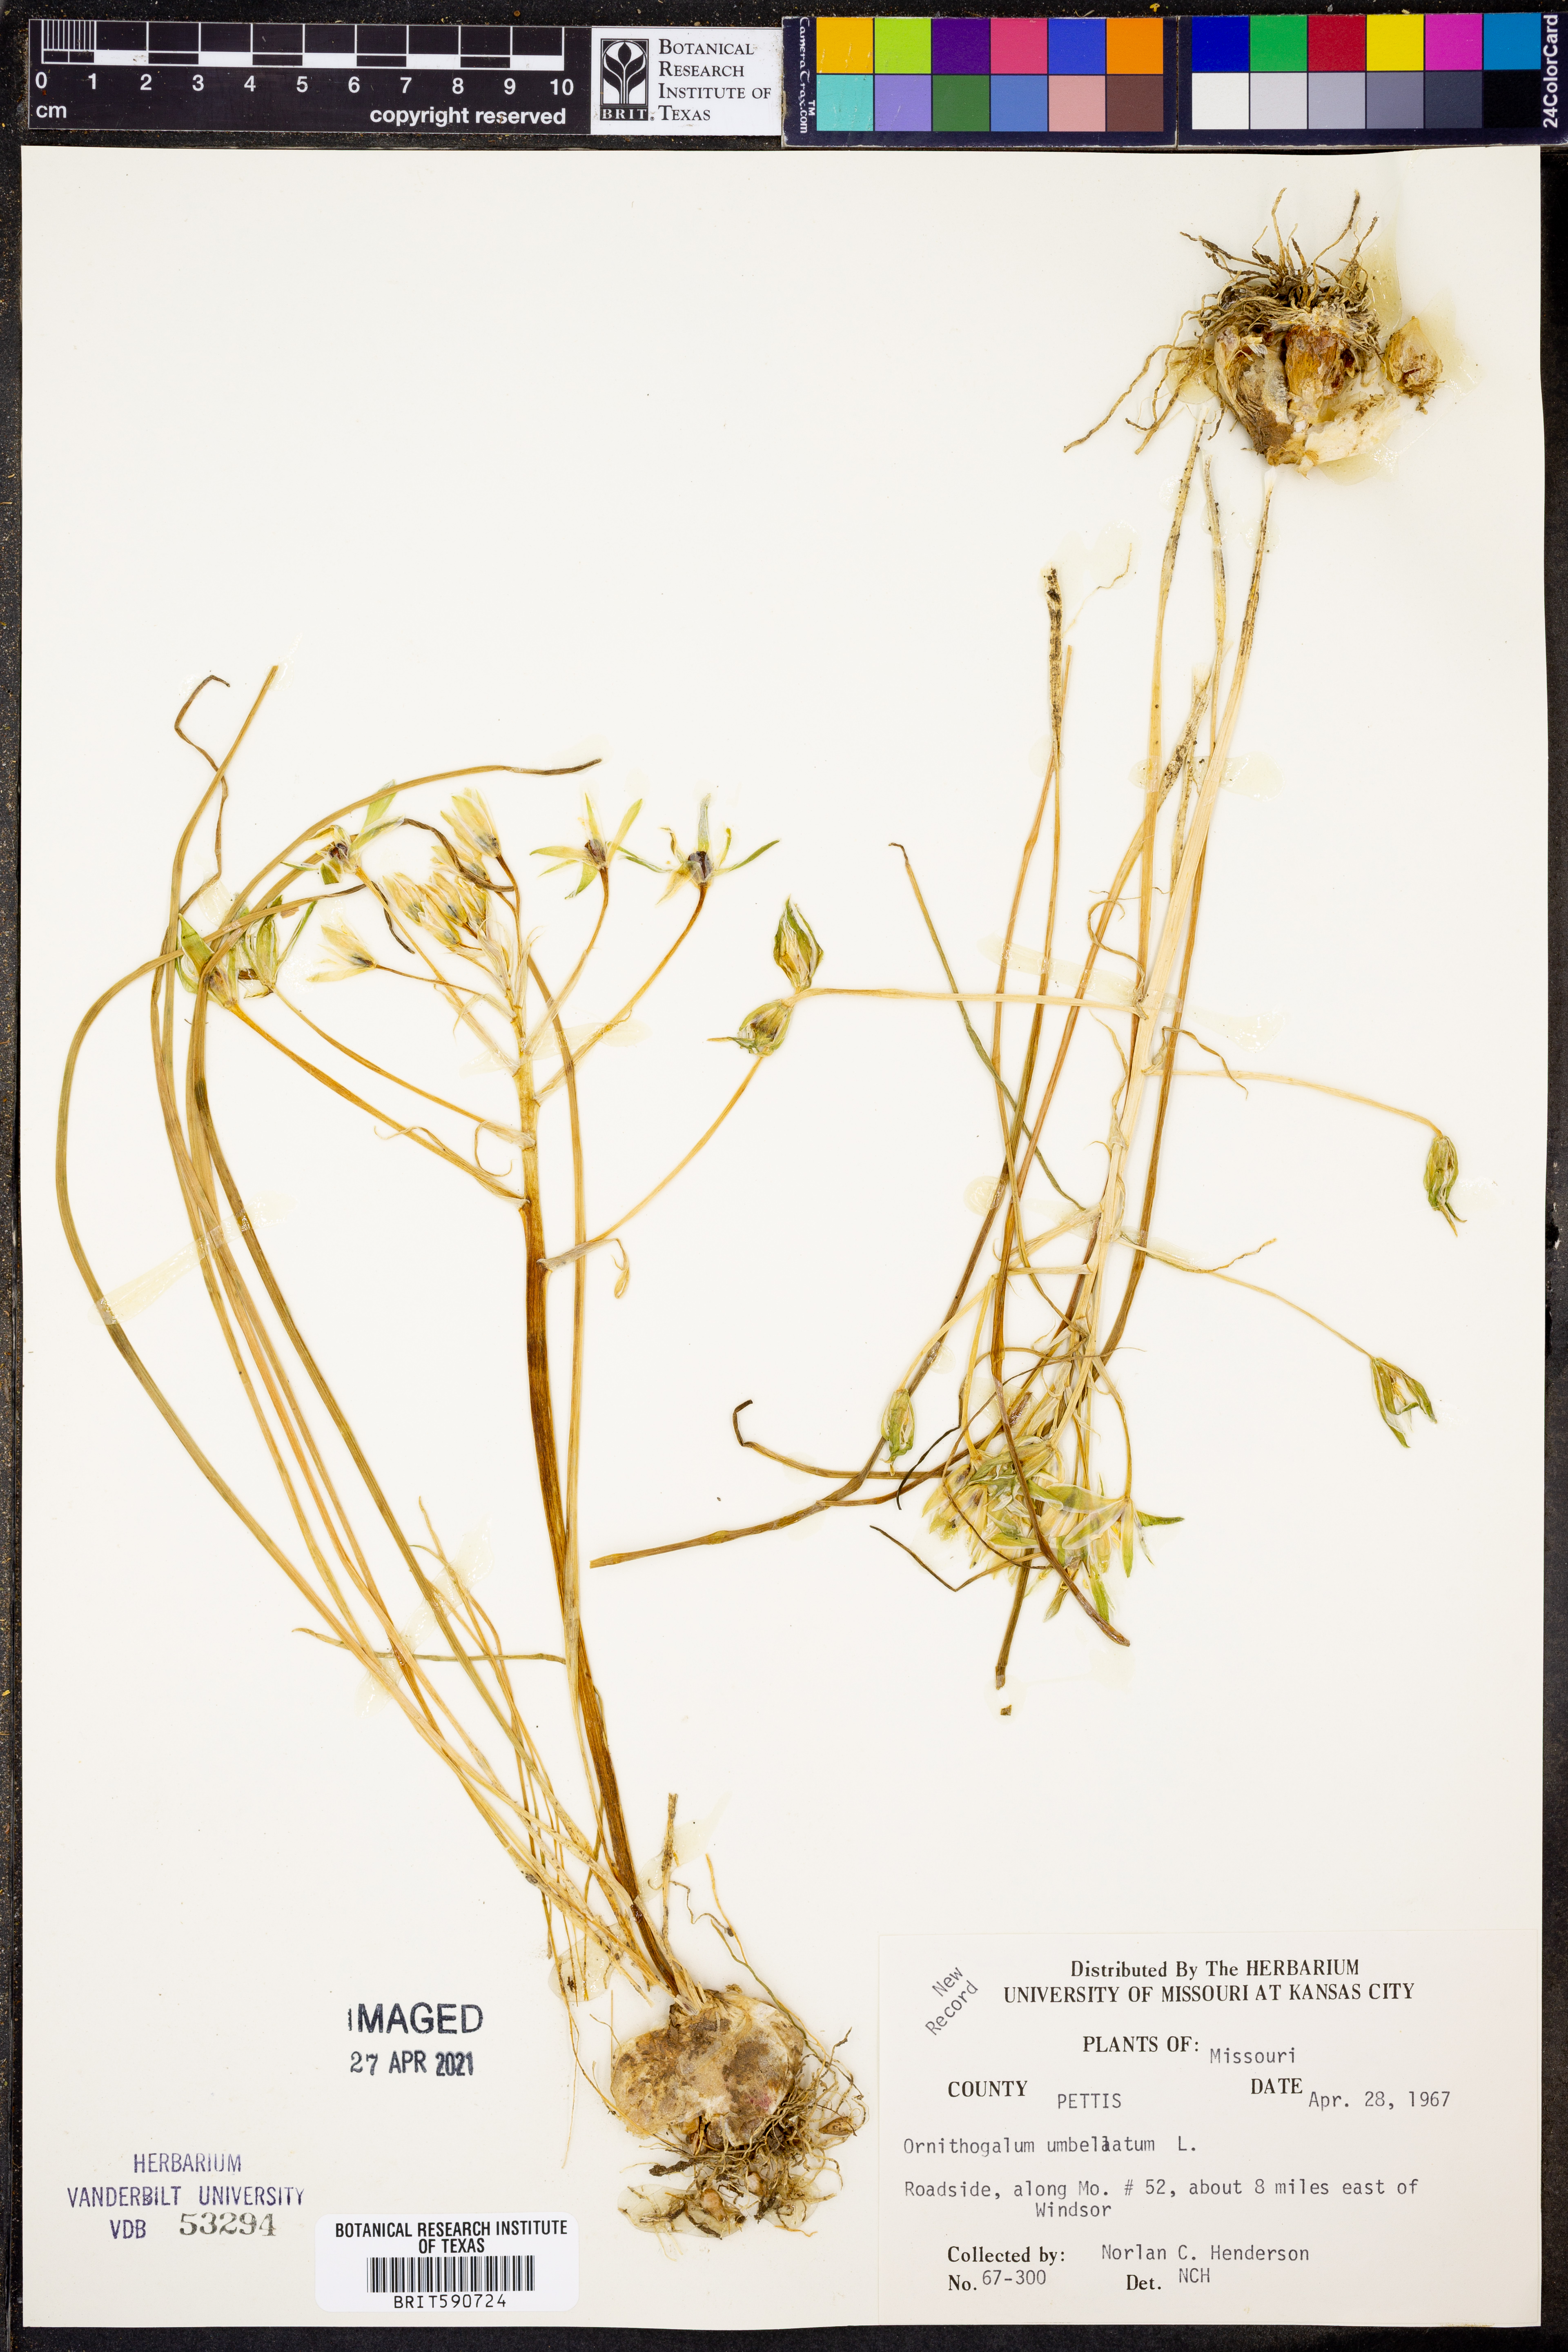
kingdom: Plantae
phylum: Tracheophyta
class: Liliopsida
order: Asparagales
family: Asparagaceae
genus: Ornithogalum
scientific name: Ornithogalum umbellatum
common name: Garden star-of-bethlehem
